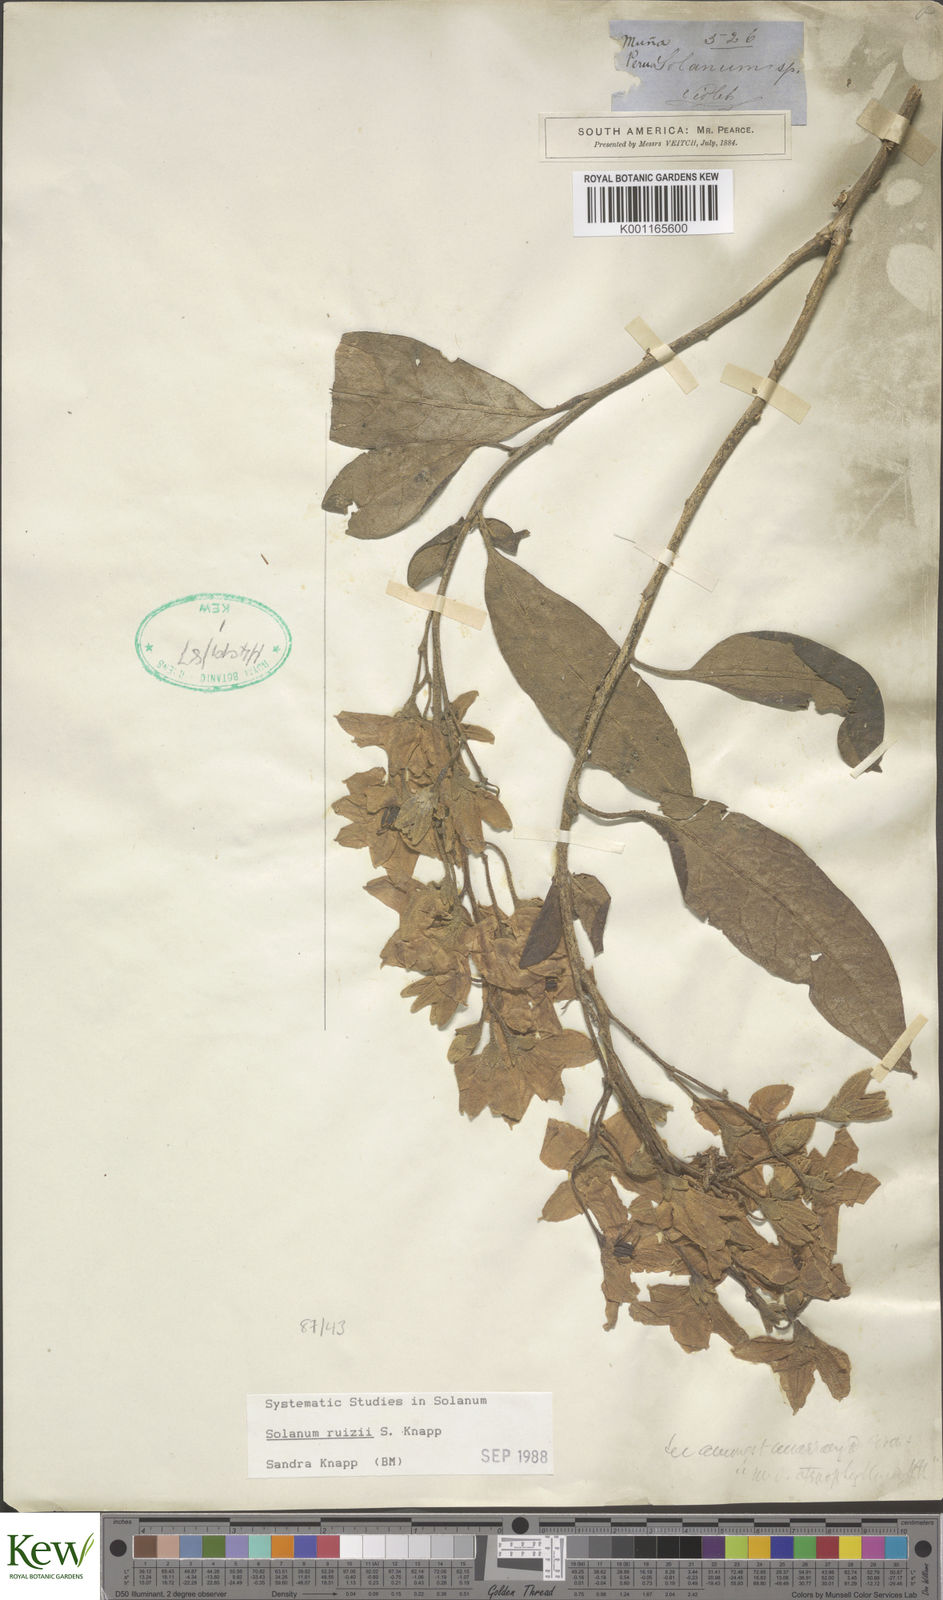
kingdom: Plantae
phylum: Tracheophyta
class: Magnoliopsida
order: Solanales
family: Solanaceae
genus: Solanum
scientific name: Solanum ruizii
